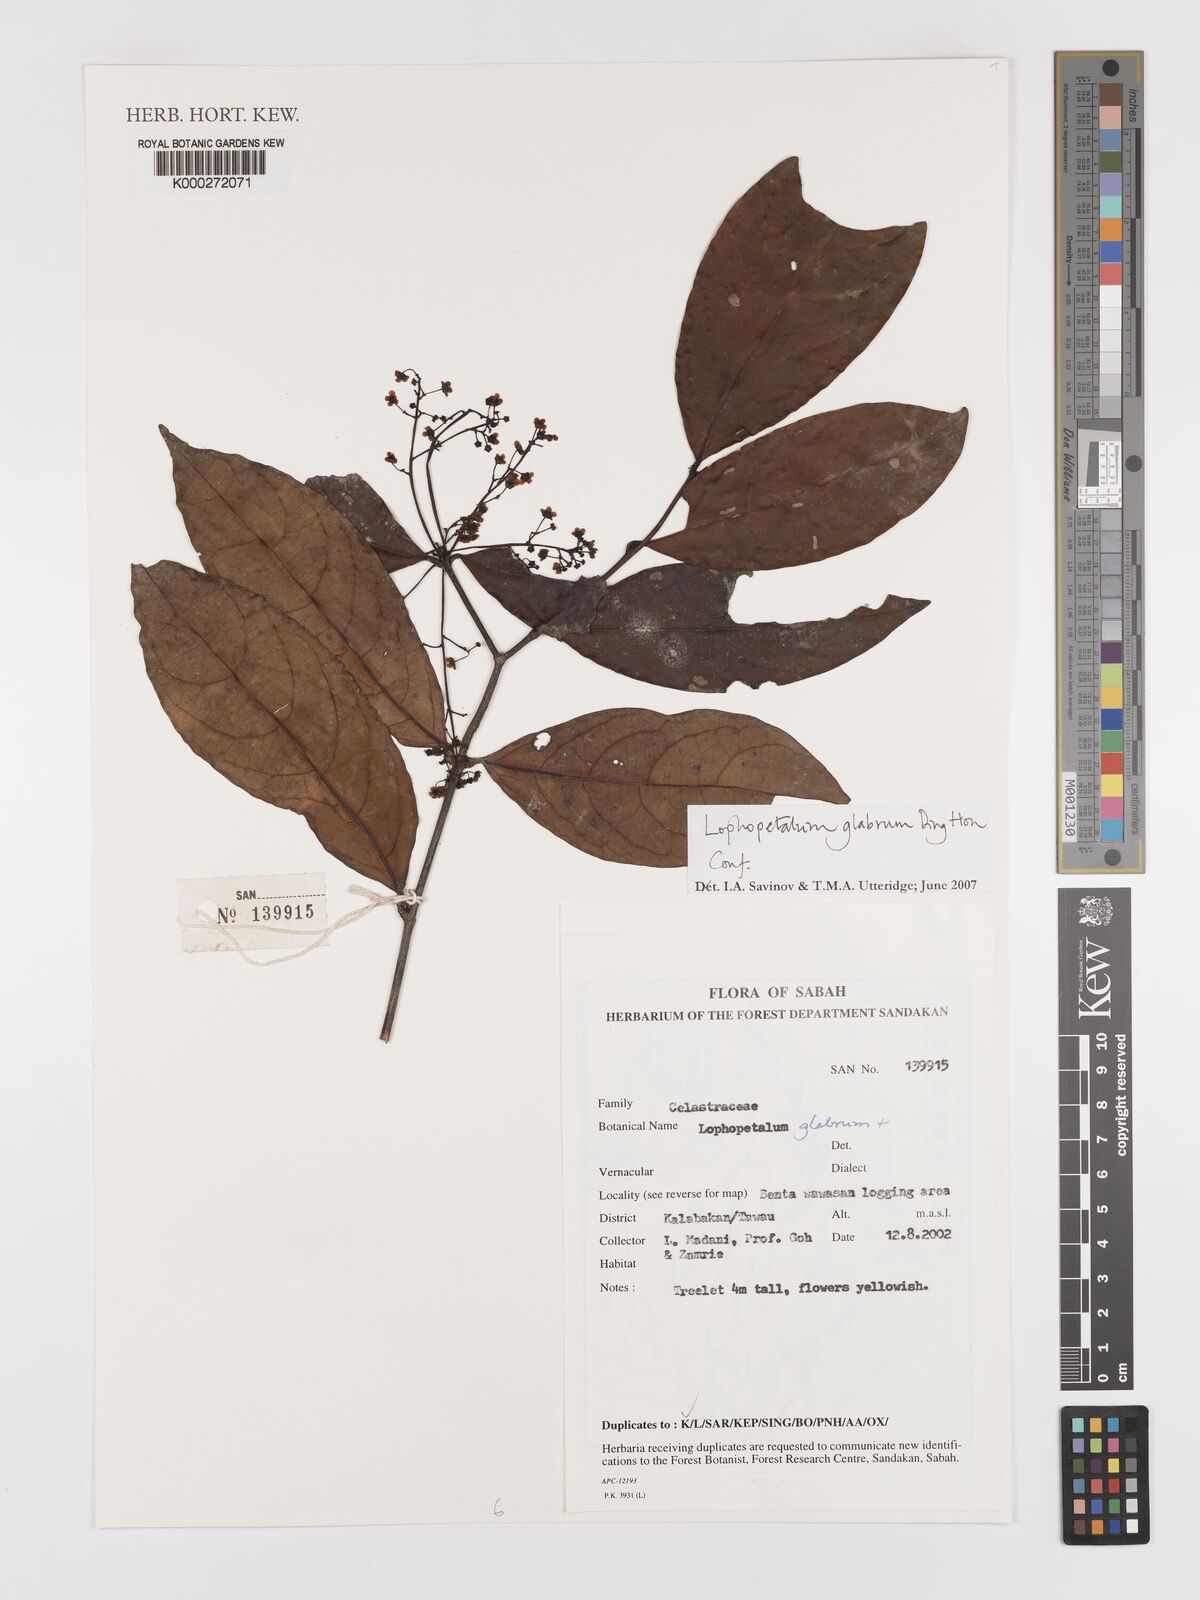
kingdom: Plantae
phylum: Tracheophyta
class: Magnoliopsida
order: Celastrales
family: Celastraceae
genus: Lophopetalum
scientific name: Lophopetalum glabrum
